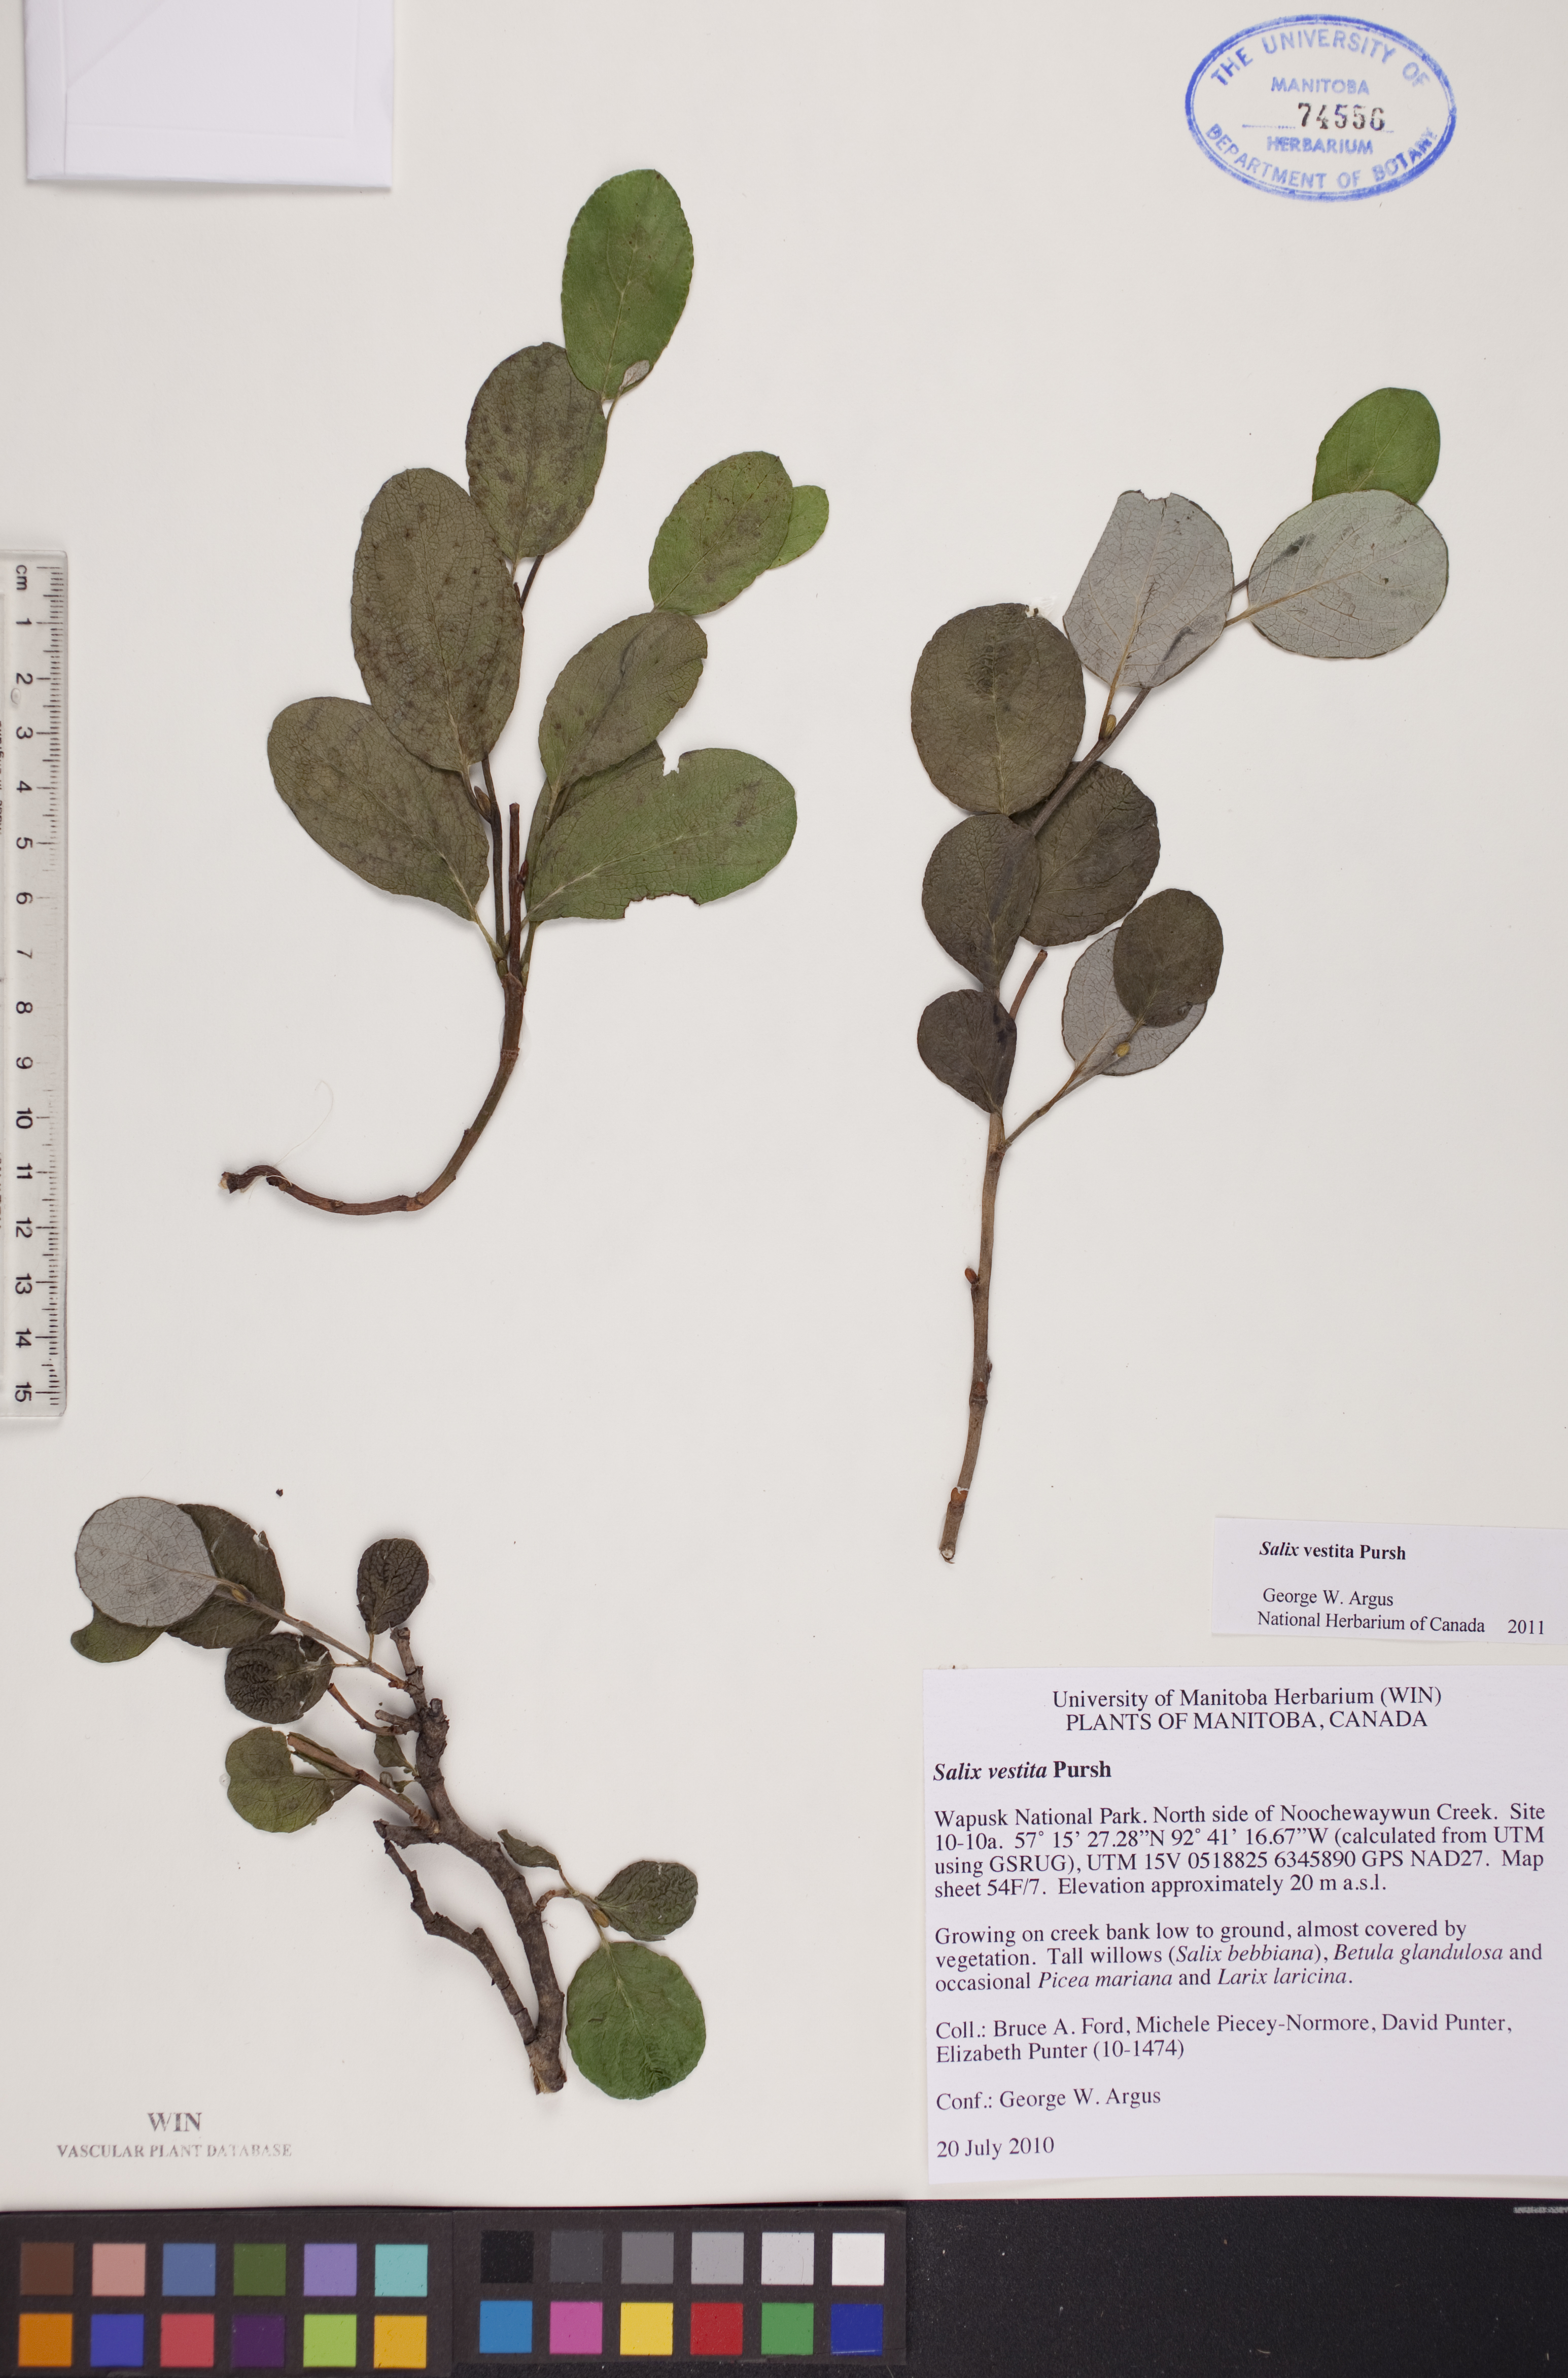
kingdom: Plantae
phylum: Tracheophyta
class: Magnoliopsida
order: Malpighiales
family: Salicaceae
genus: Salix
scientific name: Salix vestita
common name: Hairy willow
